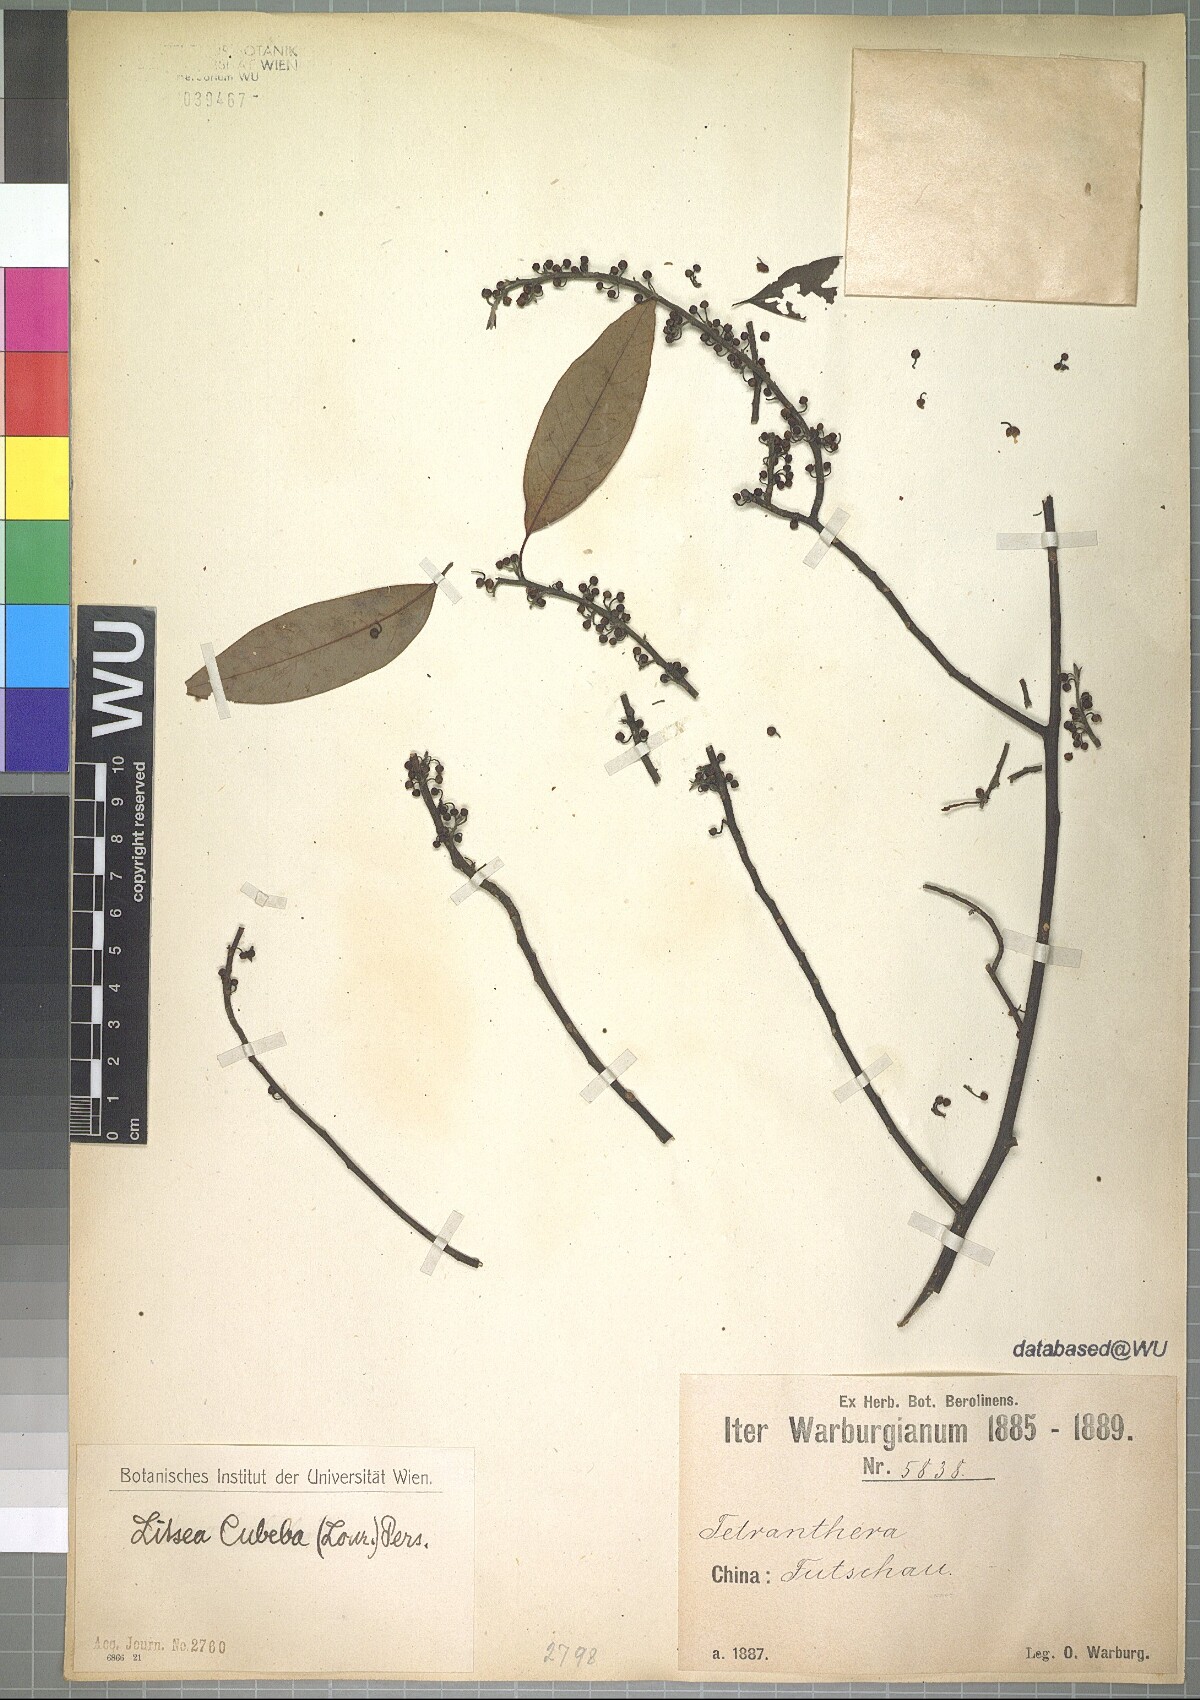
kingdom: Plantae
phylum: Tracheophyta
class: Magnoliopsida
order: Laurales
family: Lauraceae
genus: Litsea
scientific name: Litsea cubeba
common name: Mountain-pepper
